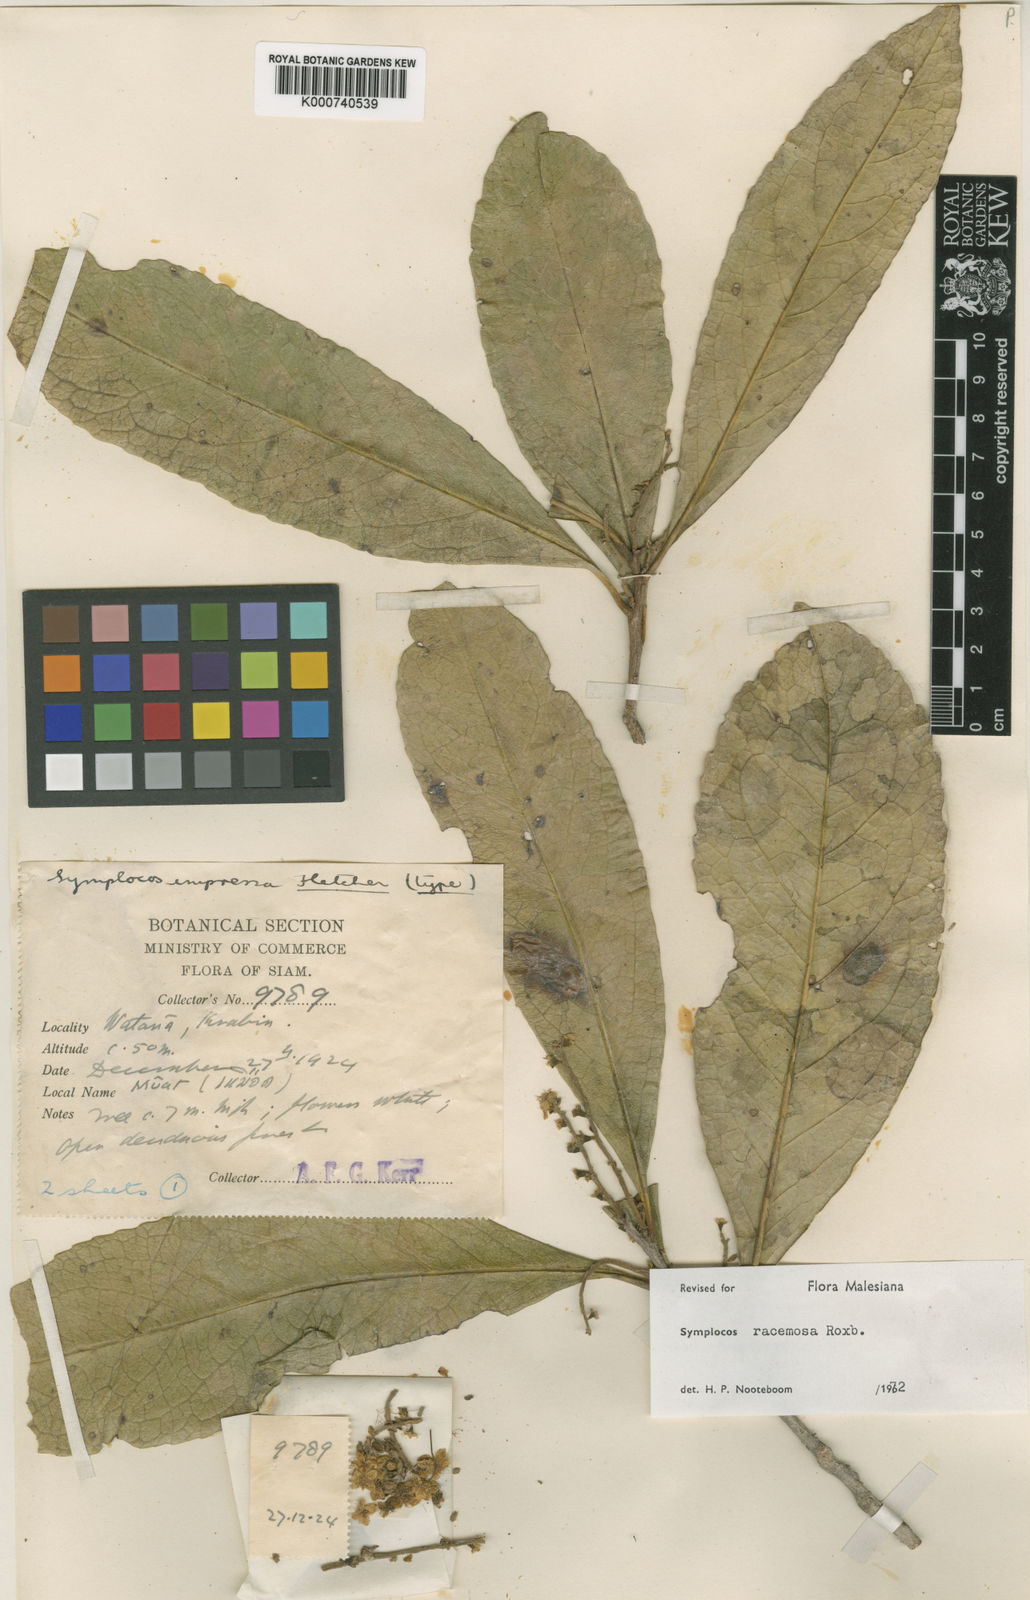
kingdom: Plantae
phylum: Tracheophyta
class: Magnoliopsida
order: Ericales
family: Symplocaceae
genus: Symplocos
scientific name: Symplocos racemosa
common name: Lodhtree
